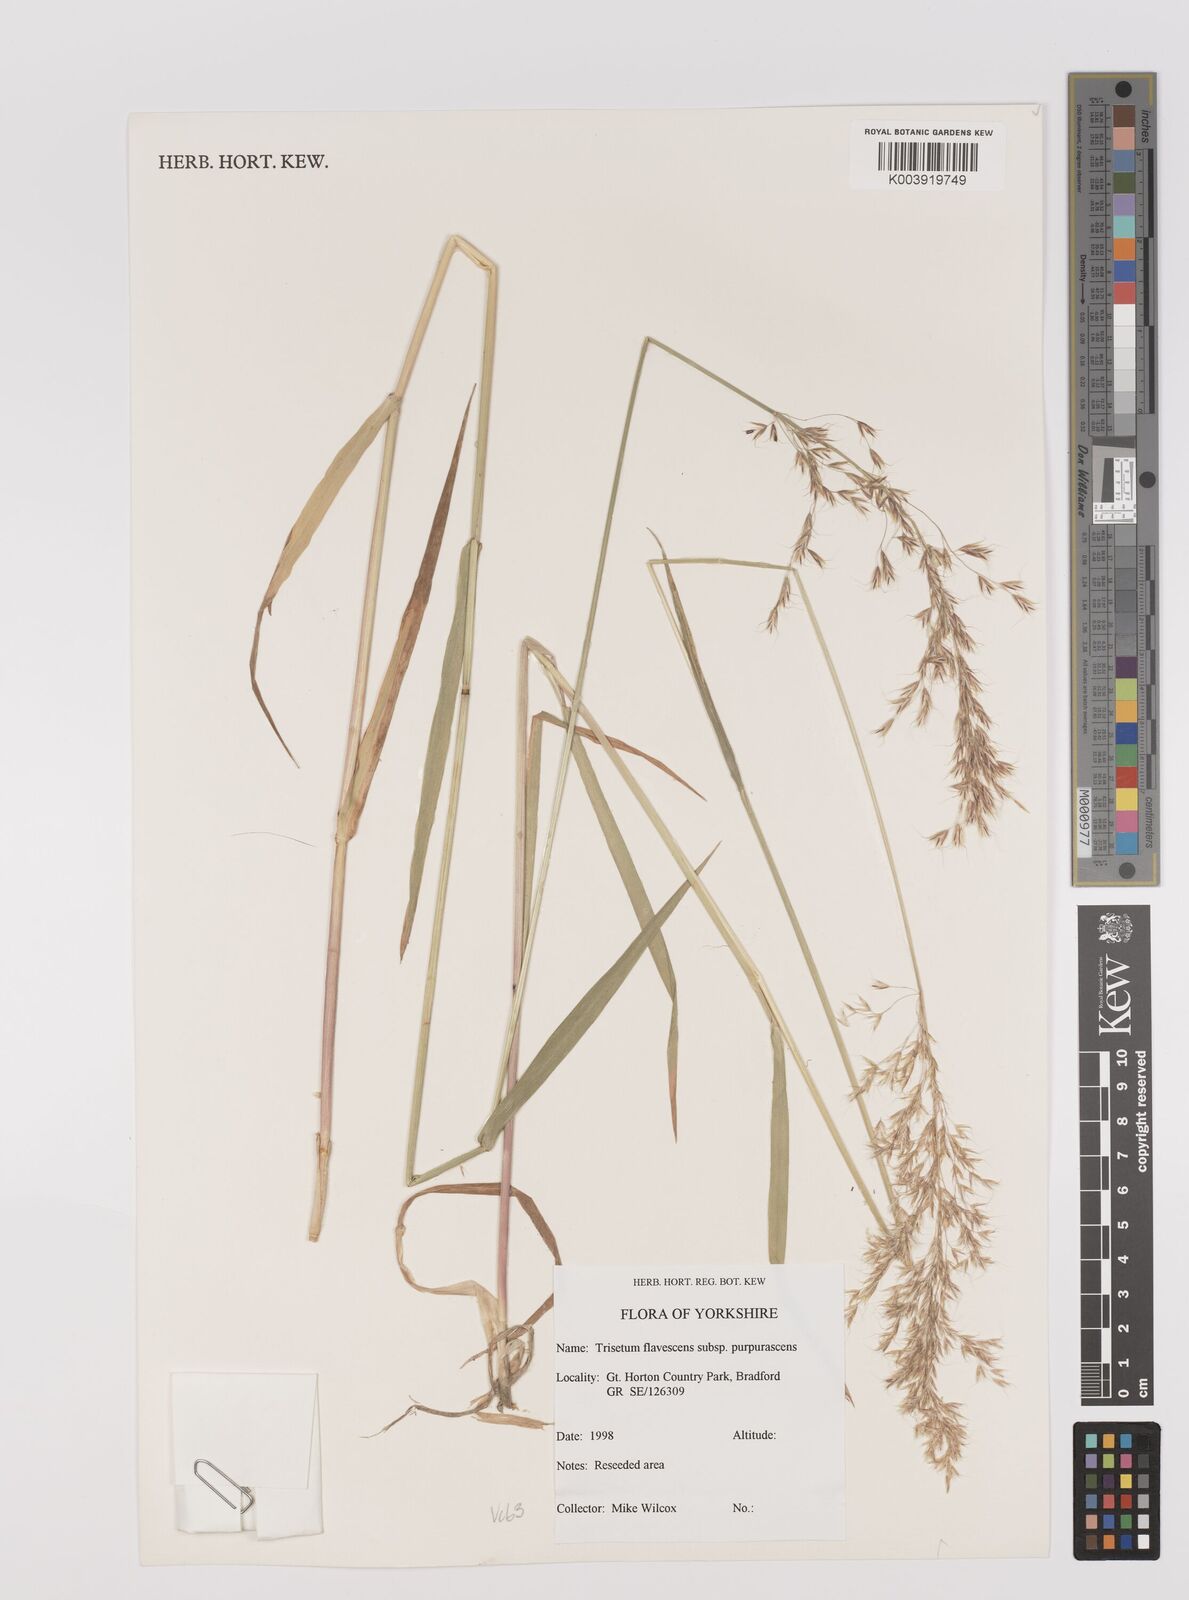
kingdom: Plantae
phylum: Tracheophyta
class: Liliopsida
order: Poales
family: Poaceae
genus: Trisetum
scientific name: Trisetum flavescens
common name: Yellow oat-grass
